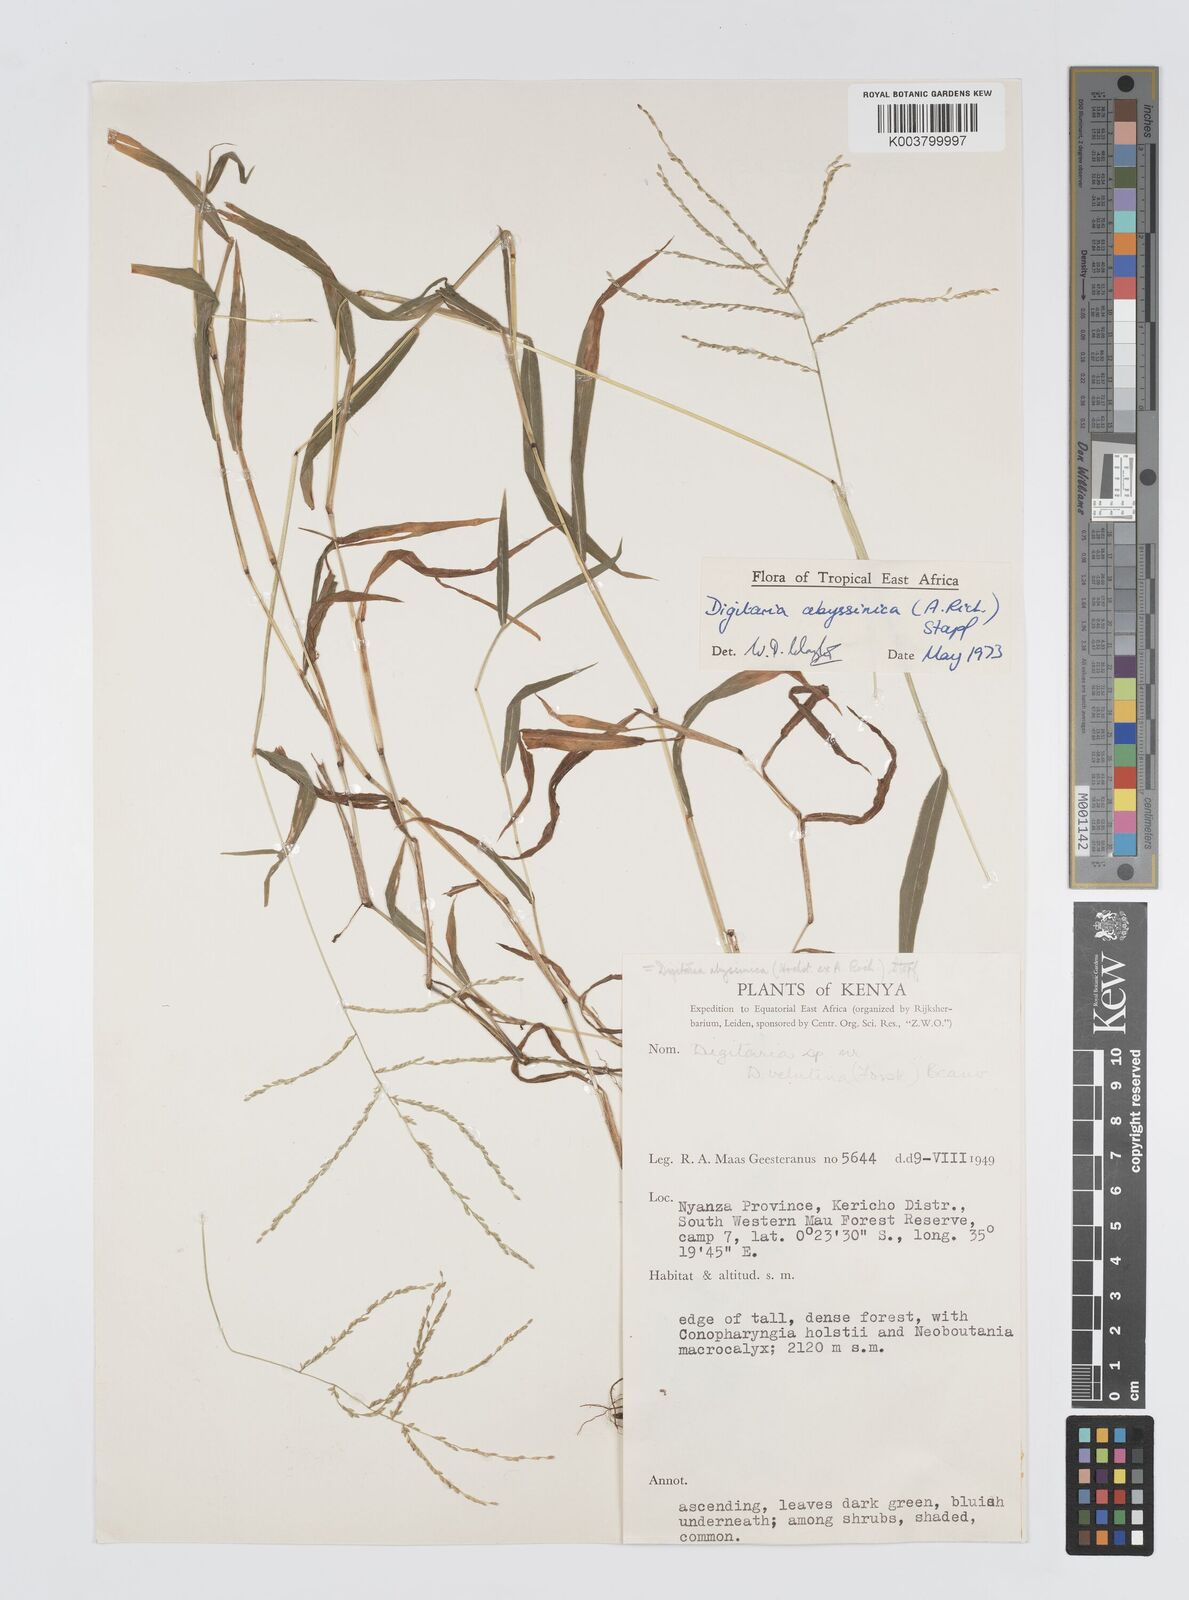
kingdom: Plantae
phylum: Tracheophyta
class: Liliopsida
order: Poales
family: Poaceae
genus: Digitaria
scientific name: Digitaria abyssinica
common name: African couchgrass
